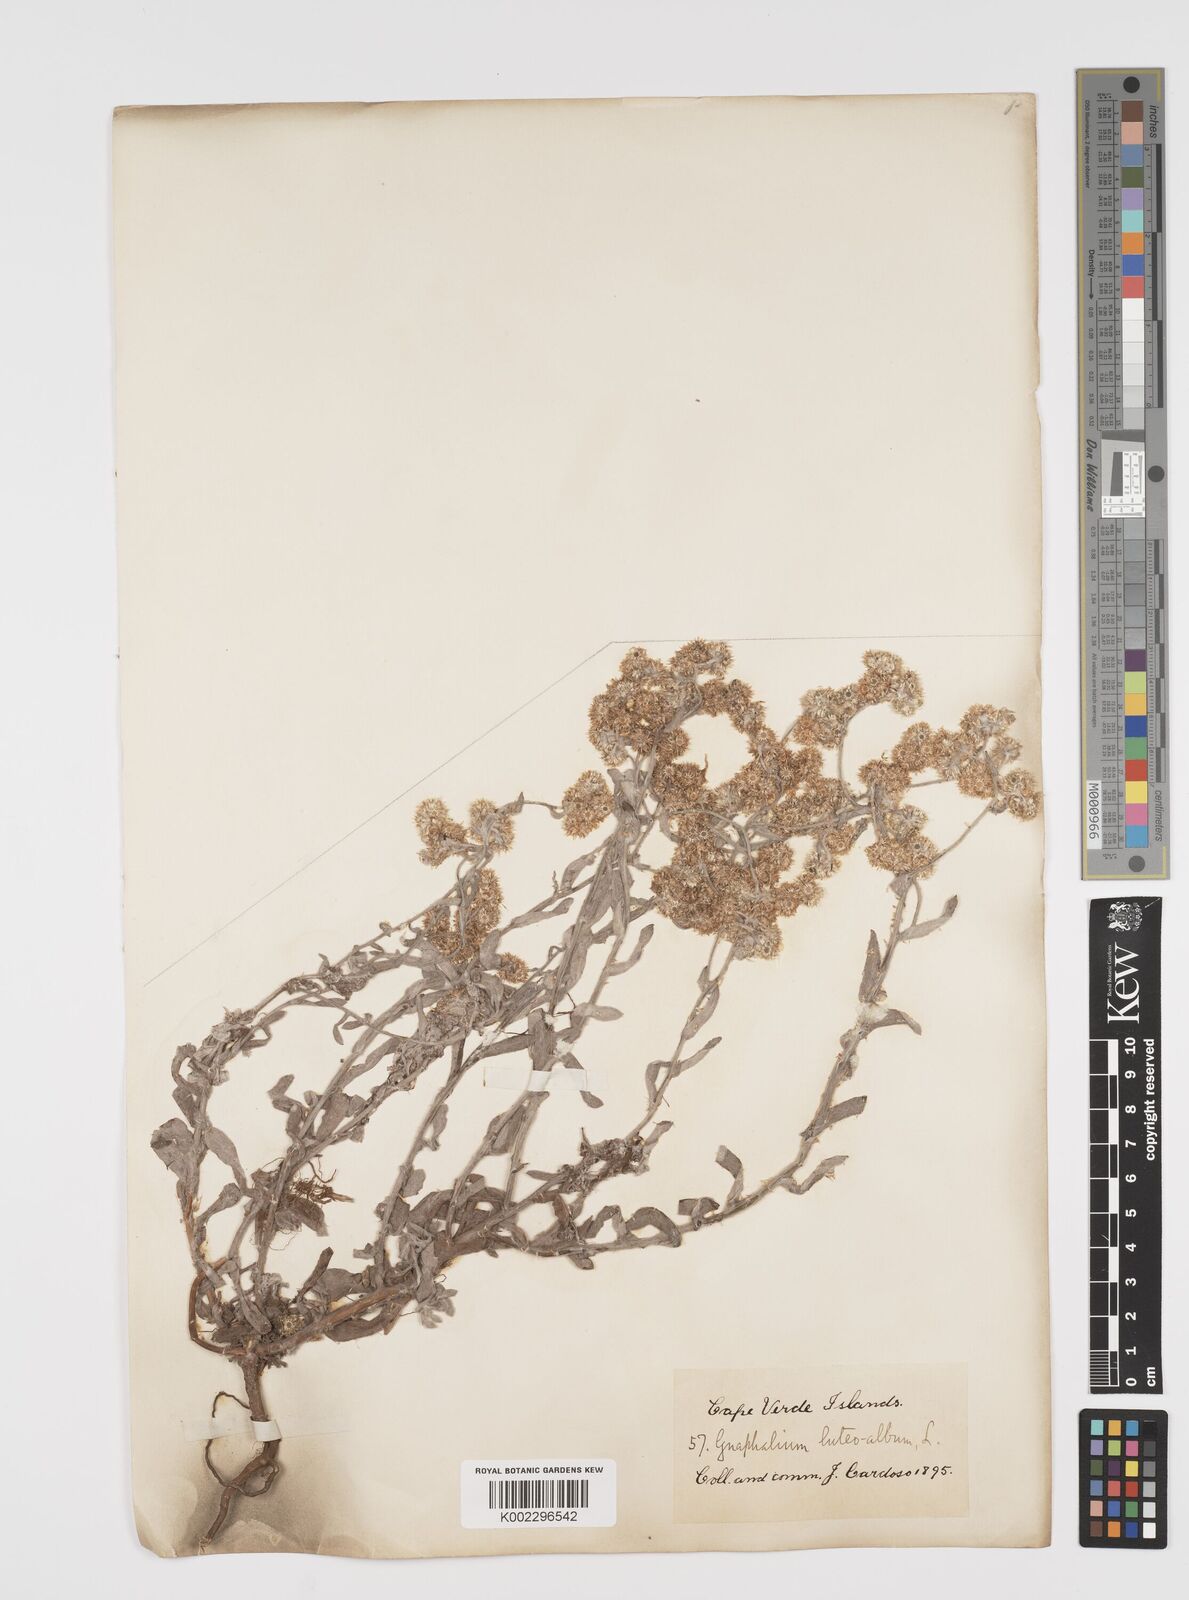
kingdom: Plantae
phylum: Tracheophyta
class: Magnoliopsida
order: Asterales
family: Asteraceae
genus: Helichrysum
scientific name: Helichrysum luteoalbum
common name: Daisy
